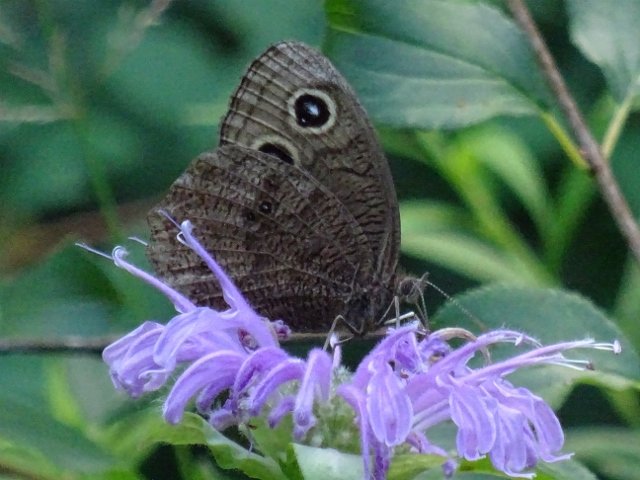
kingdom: Animalia
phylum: Arthropoda
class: Insecta
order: Lepidoptera
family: Nymphalidae
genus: Cercyonis
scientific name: Cercyonis pegala
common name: Common Wood-Nymph
